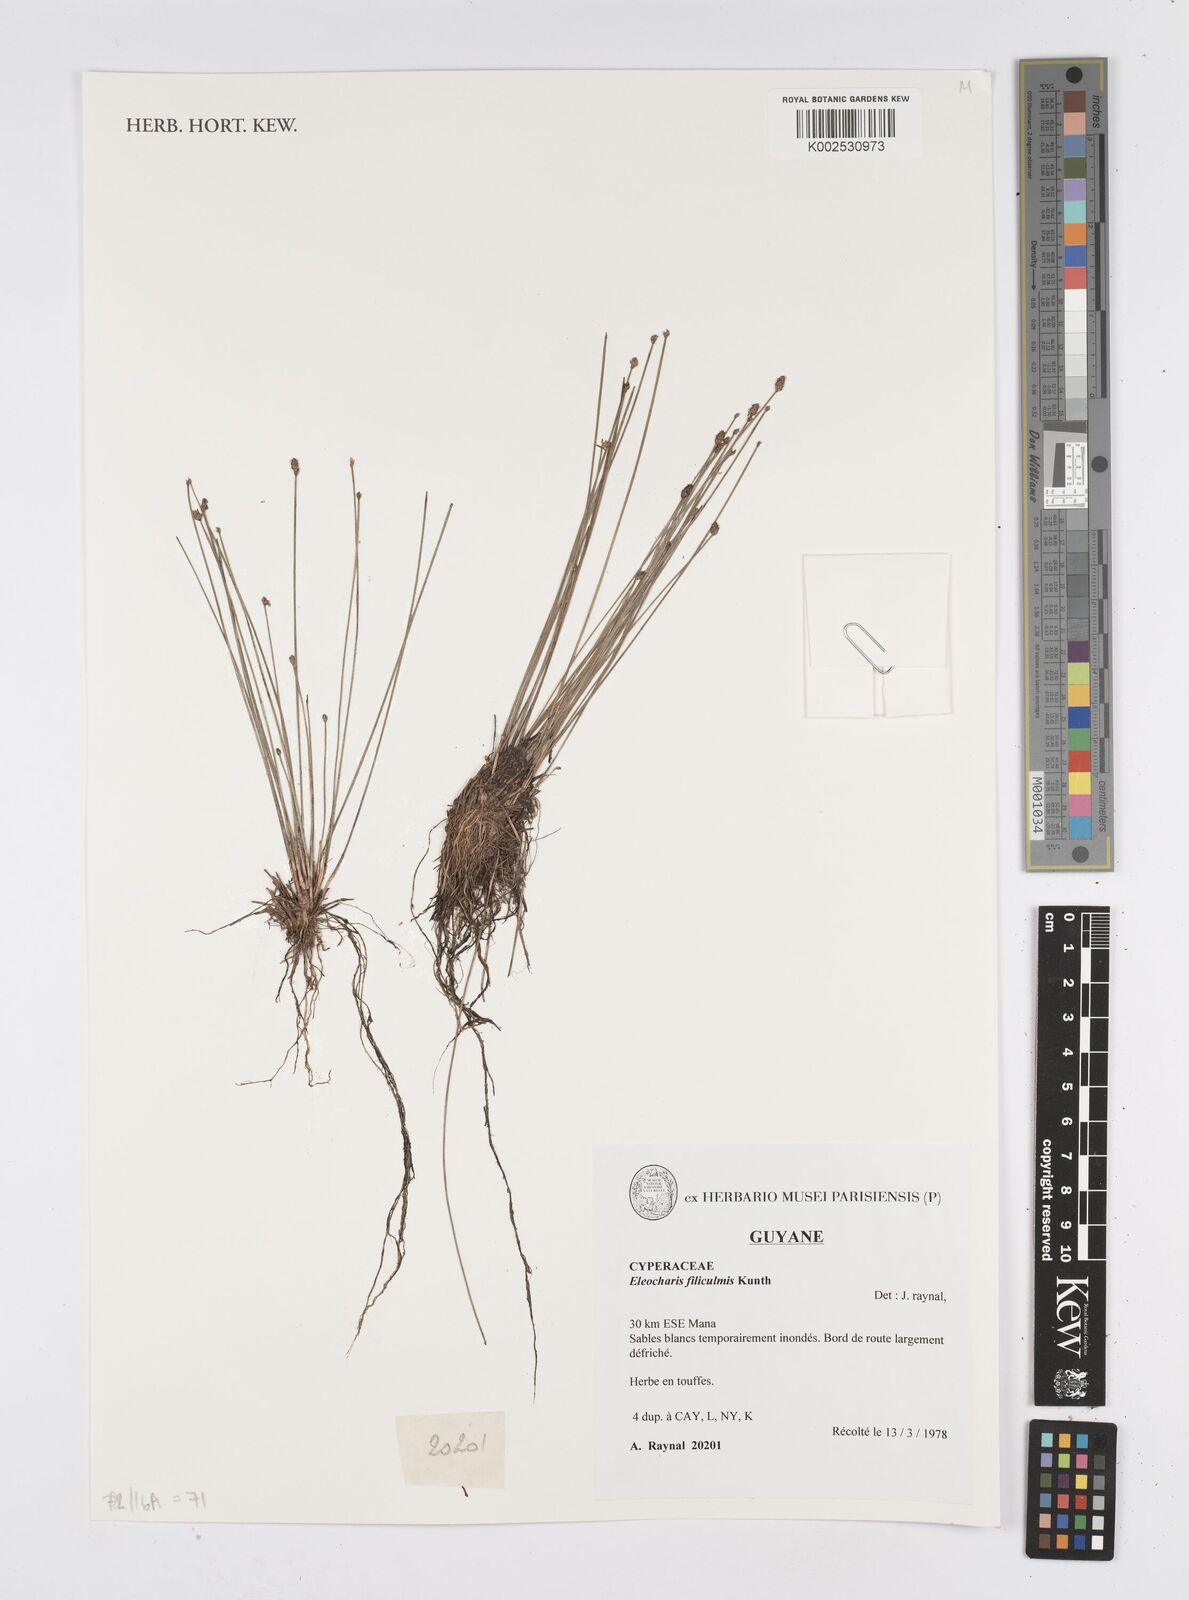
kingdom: Plantae
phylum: Tracheophyta
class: Liliopsida
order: Poales
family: Cyperaceae
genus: Eleocharis
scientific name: Eleocharis tenuis
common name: Dog's hair
